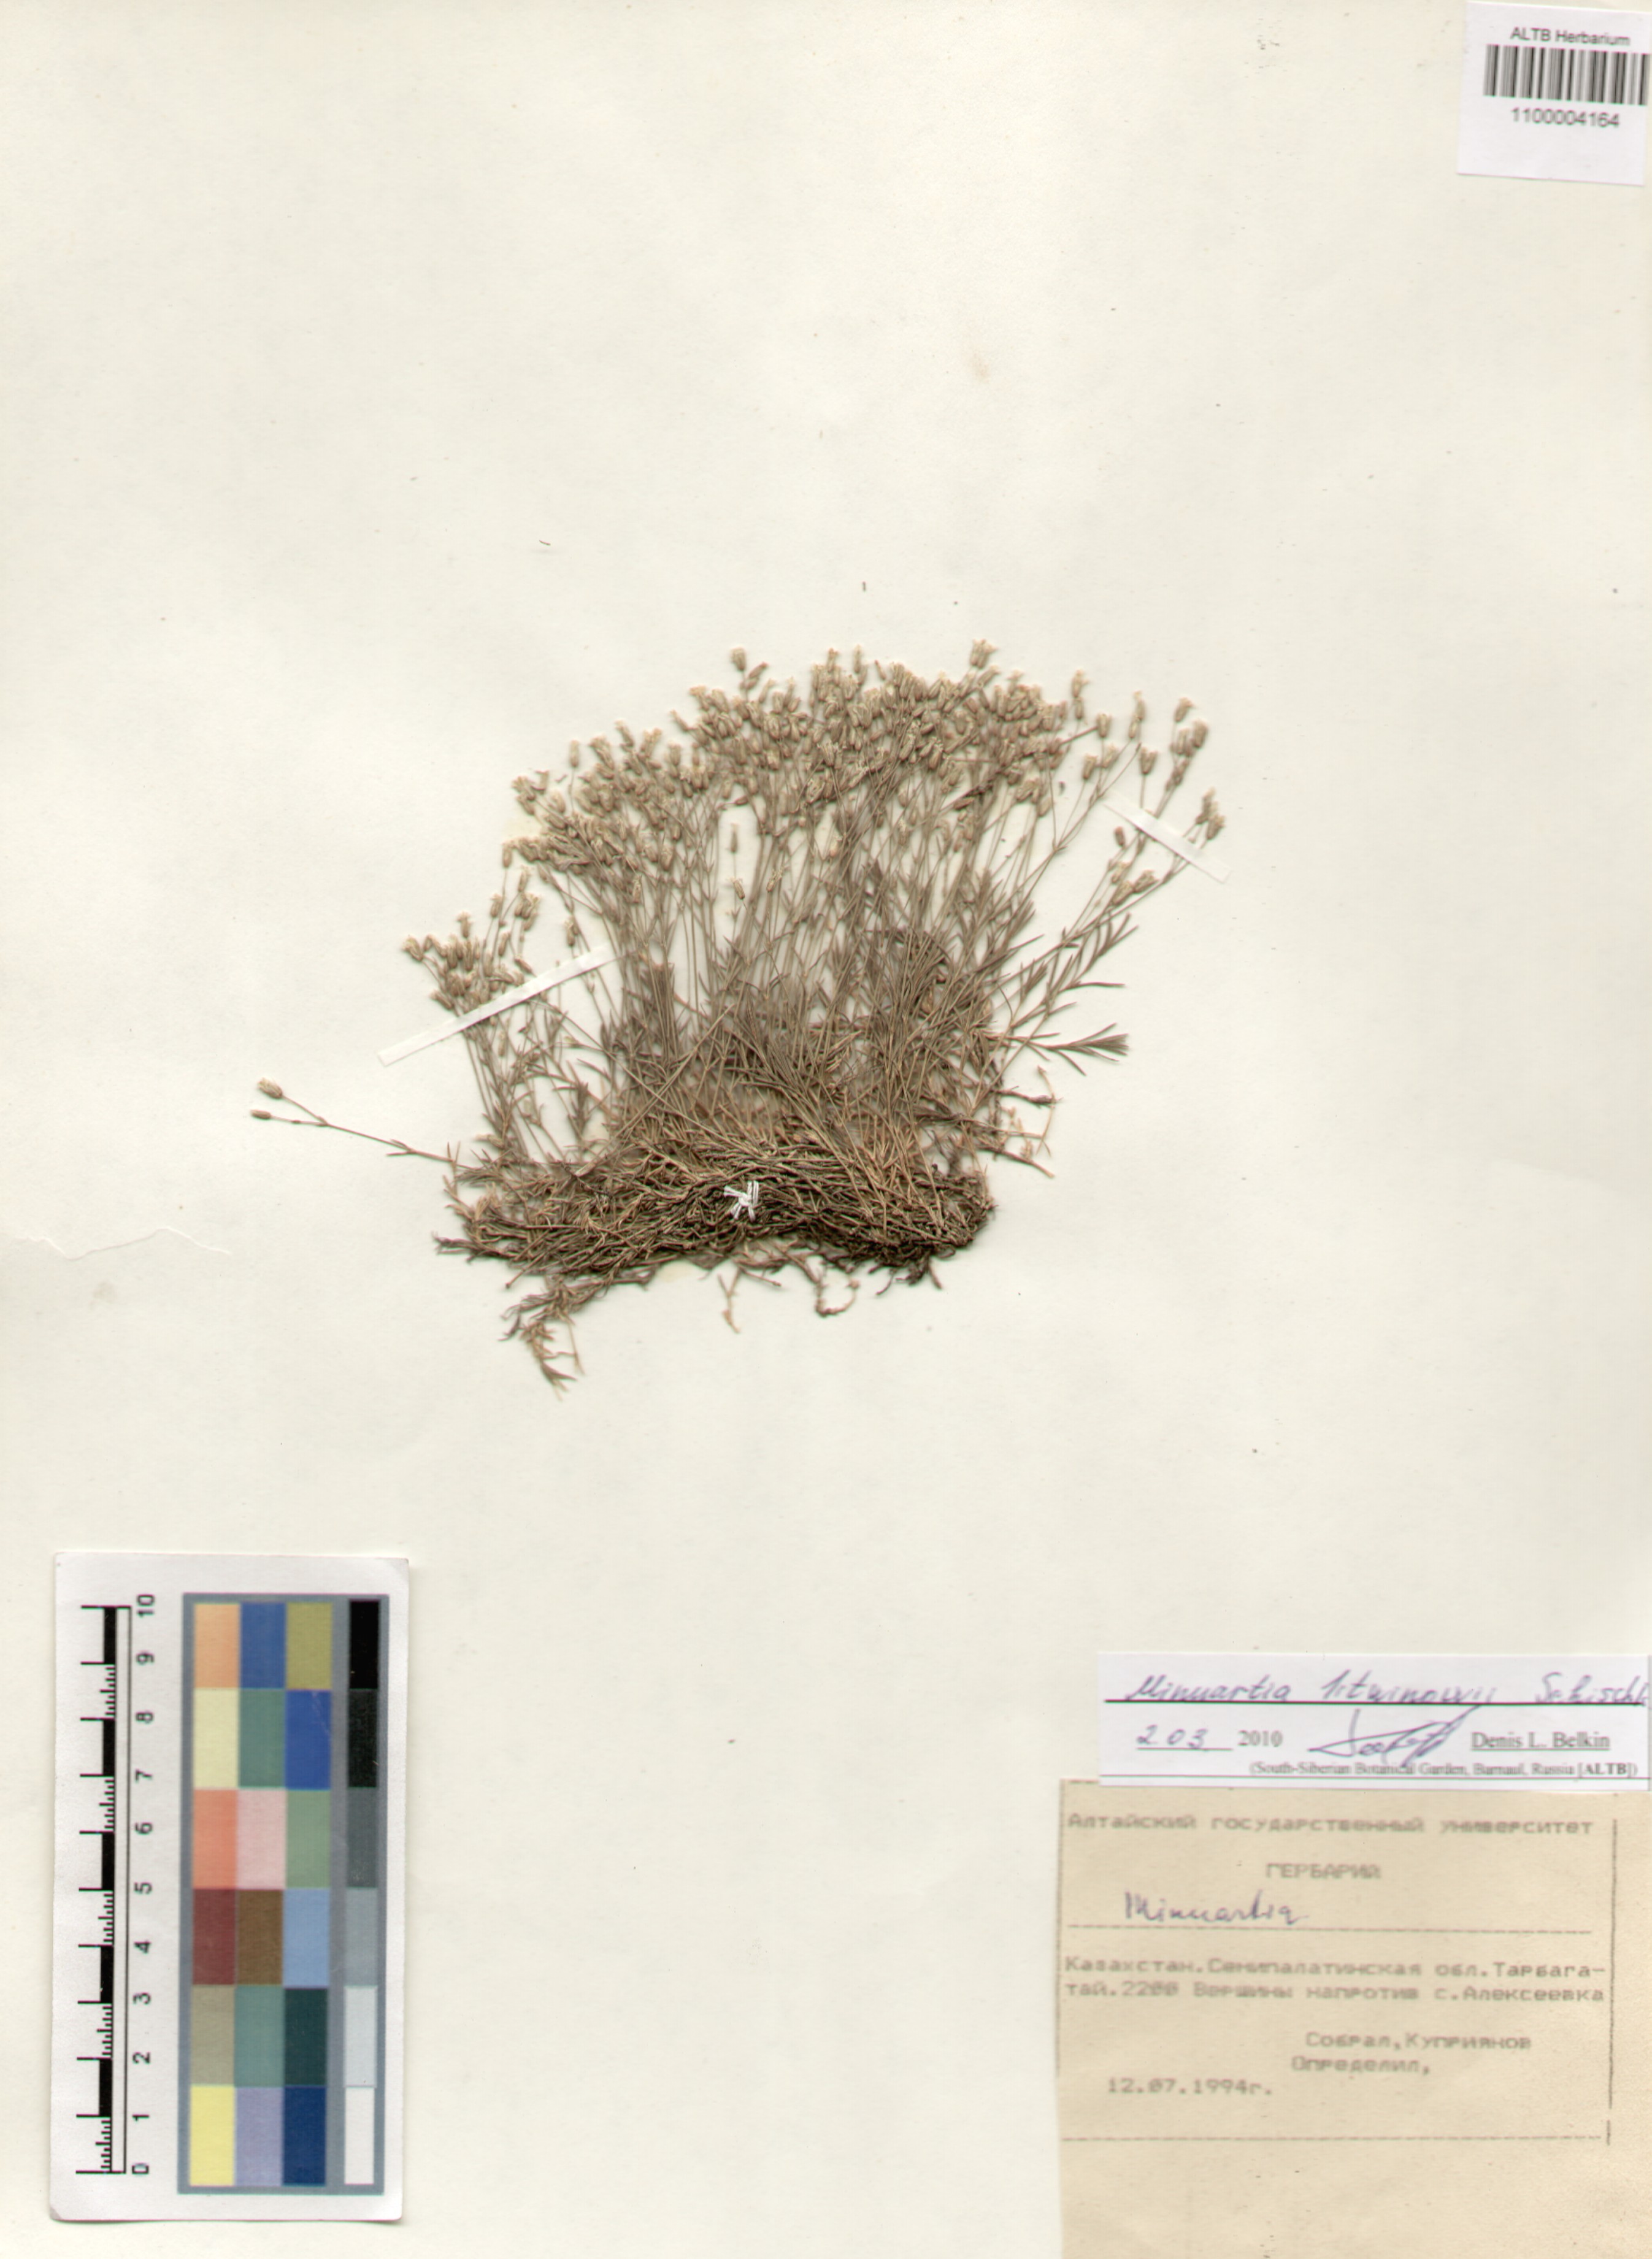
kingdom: Plantae
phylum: Tracheophyta
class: Magnoliopsida
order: Caryophyllales
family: Caryophyllaceae
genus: Sabulina
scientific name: Sabulina litvinovii
